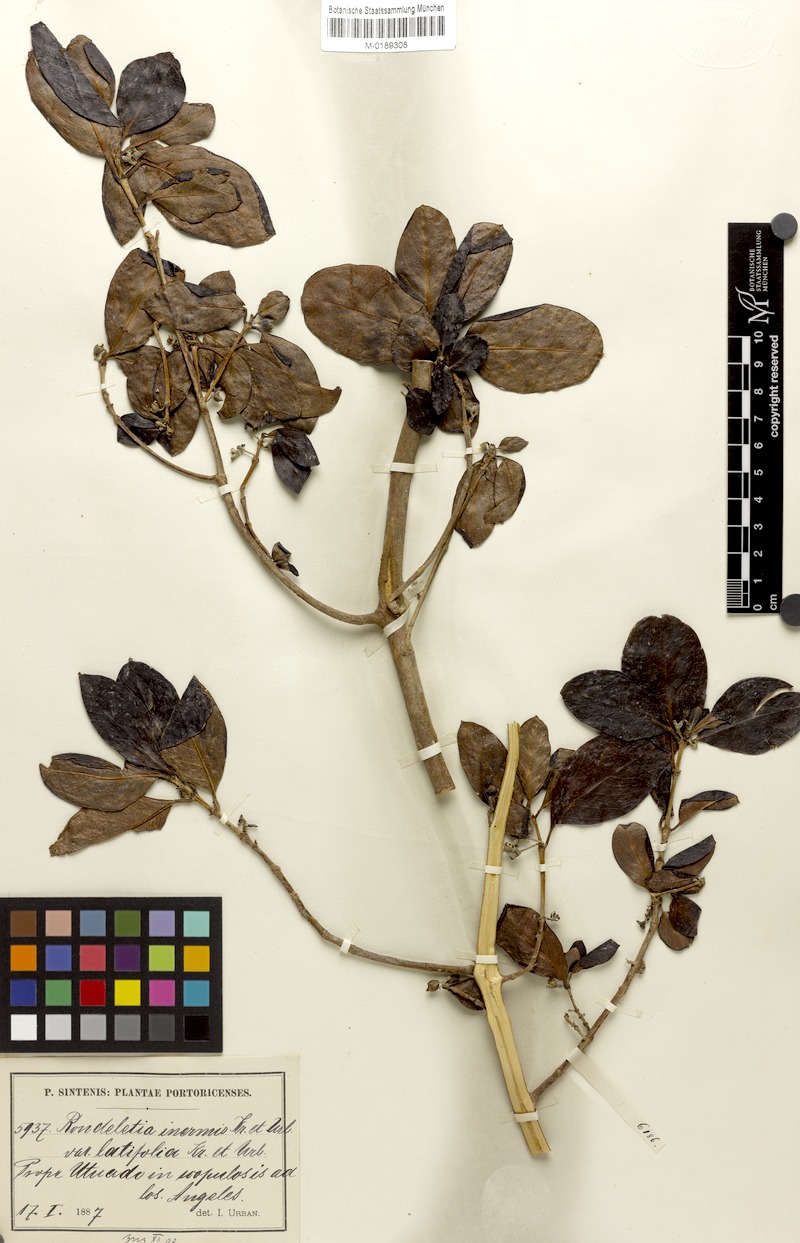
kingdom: Plantae
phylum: Tracheophyta
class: Magnoliopsida
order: Gentianales
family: Rubiaceae
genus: Rondeletia
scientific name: Rondeletia inermis
